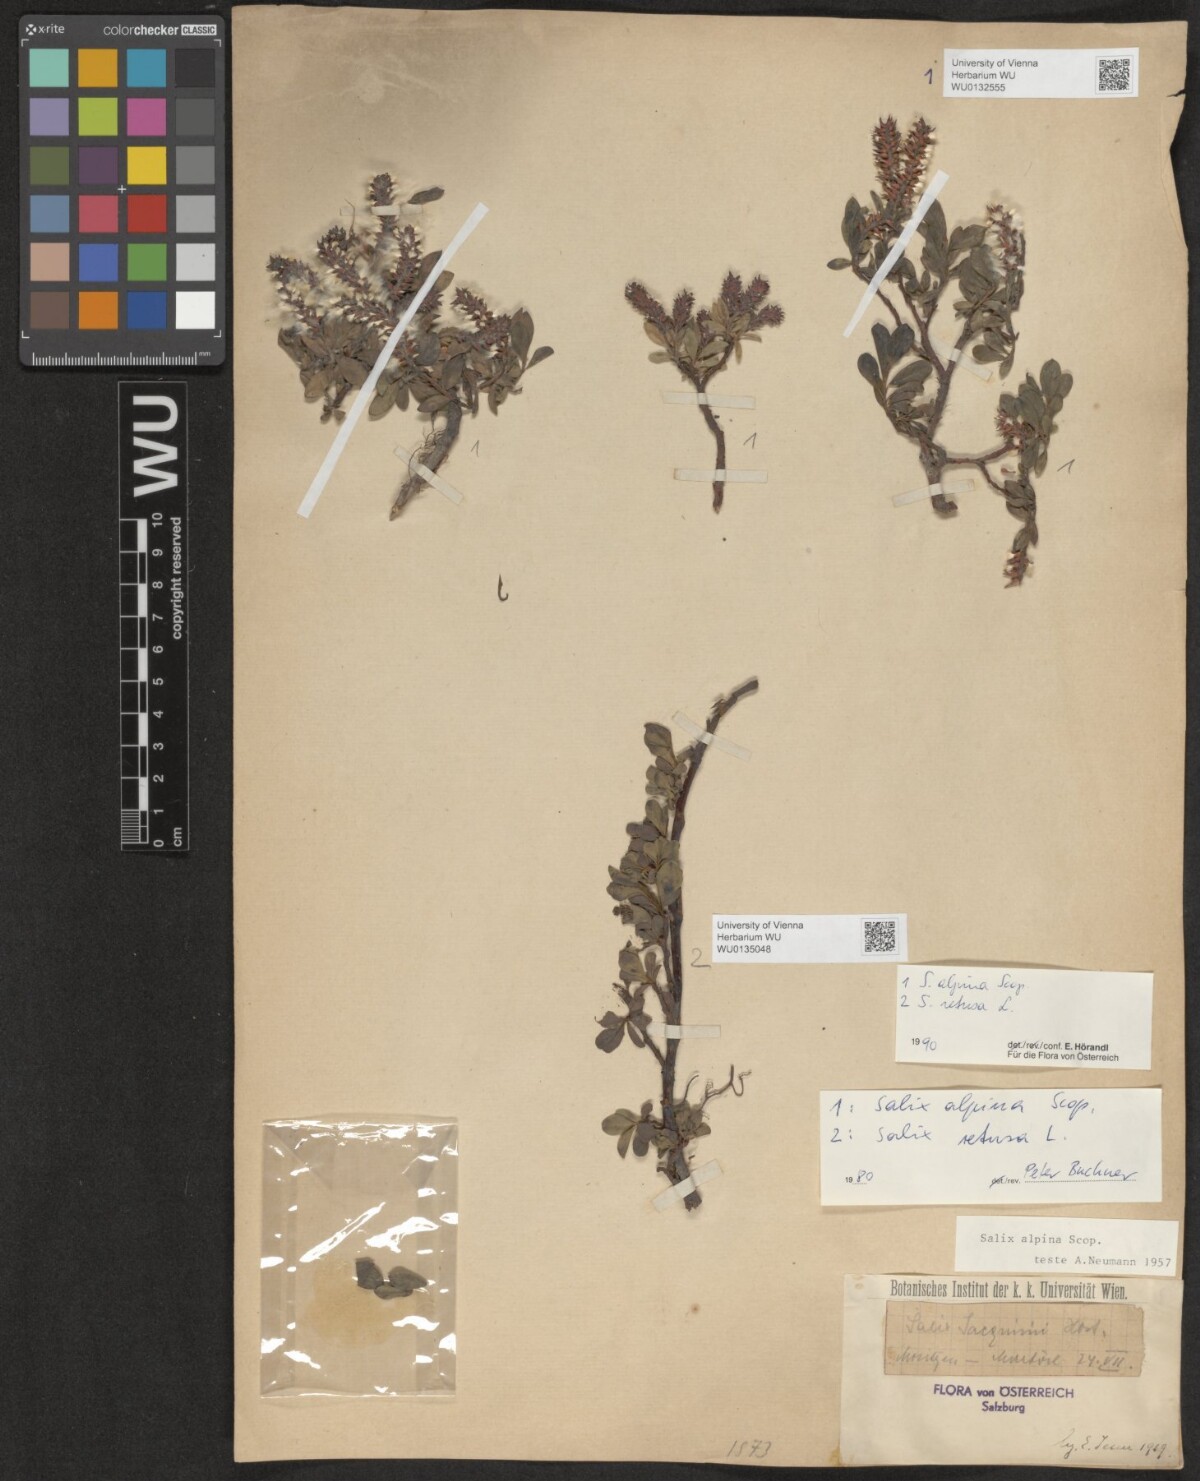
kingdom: Plantae
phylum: Tracheophyta
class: Magnoliopsida
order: Malpighiales
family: Salicaceae
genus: Salix
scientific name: Salix alpina
